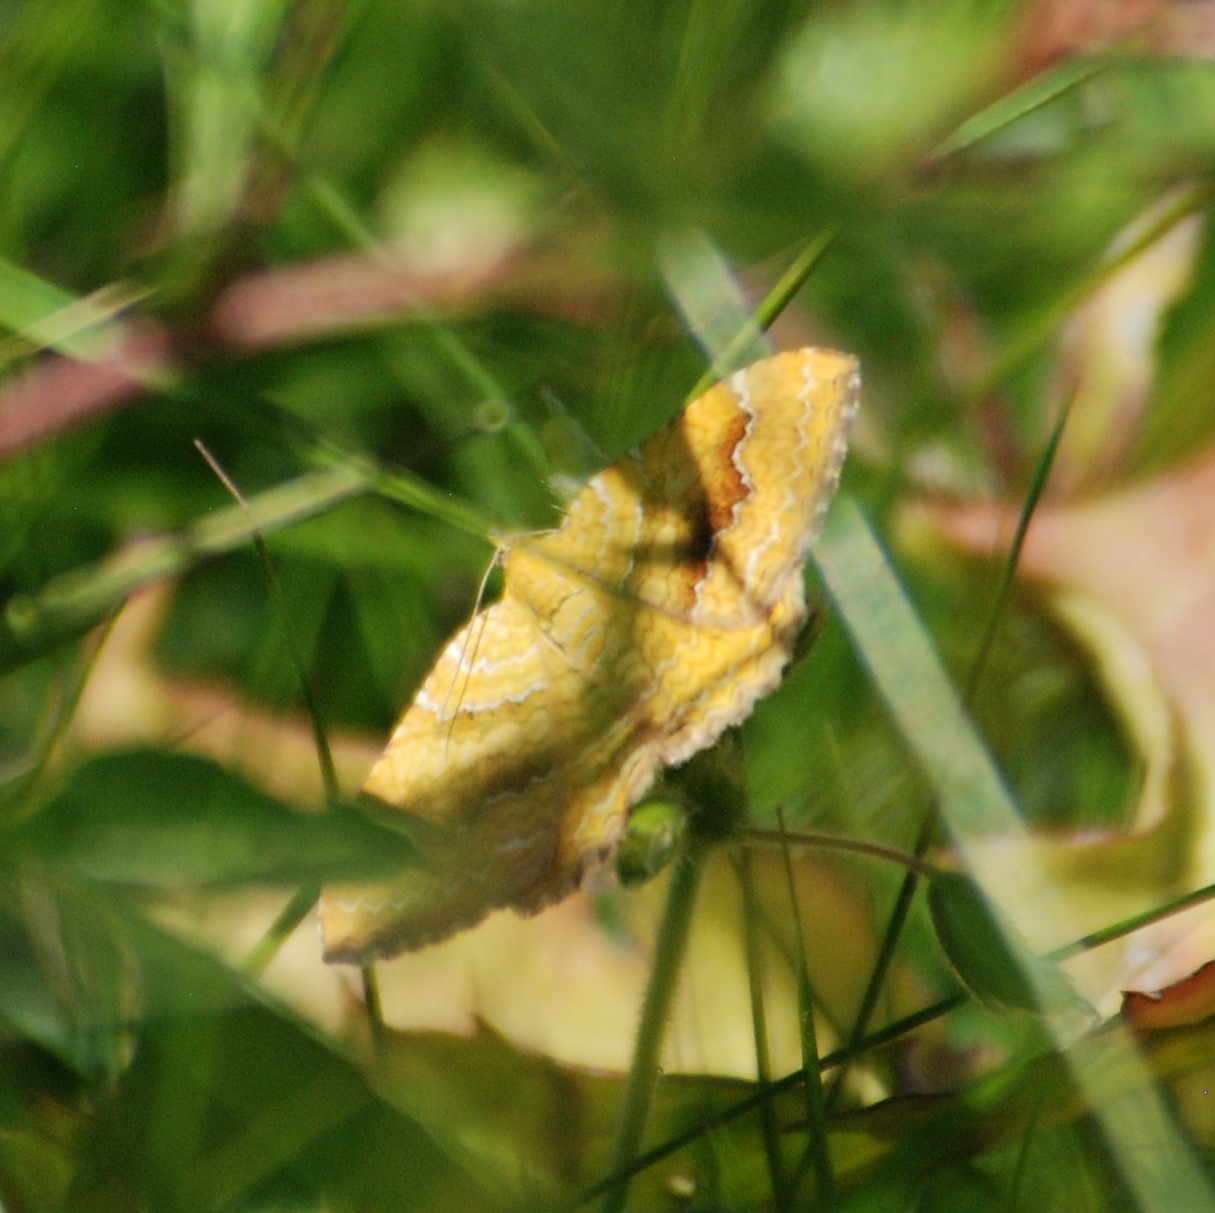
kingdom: Animalia
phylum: Arthropoda
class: Insecta
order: Lepidoptera
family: Geometridae
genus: Camptogramma
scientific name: Camptogramma bilineata
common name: Okkergul bladmåler
